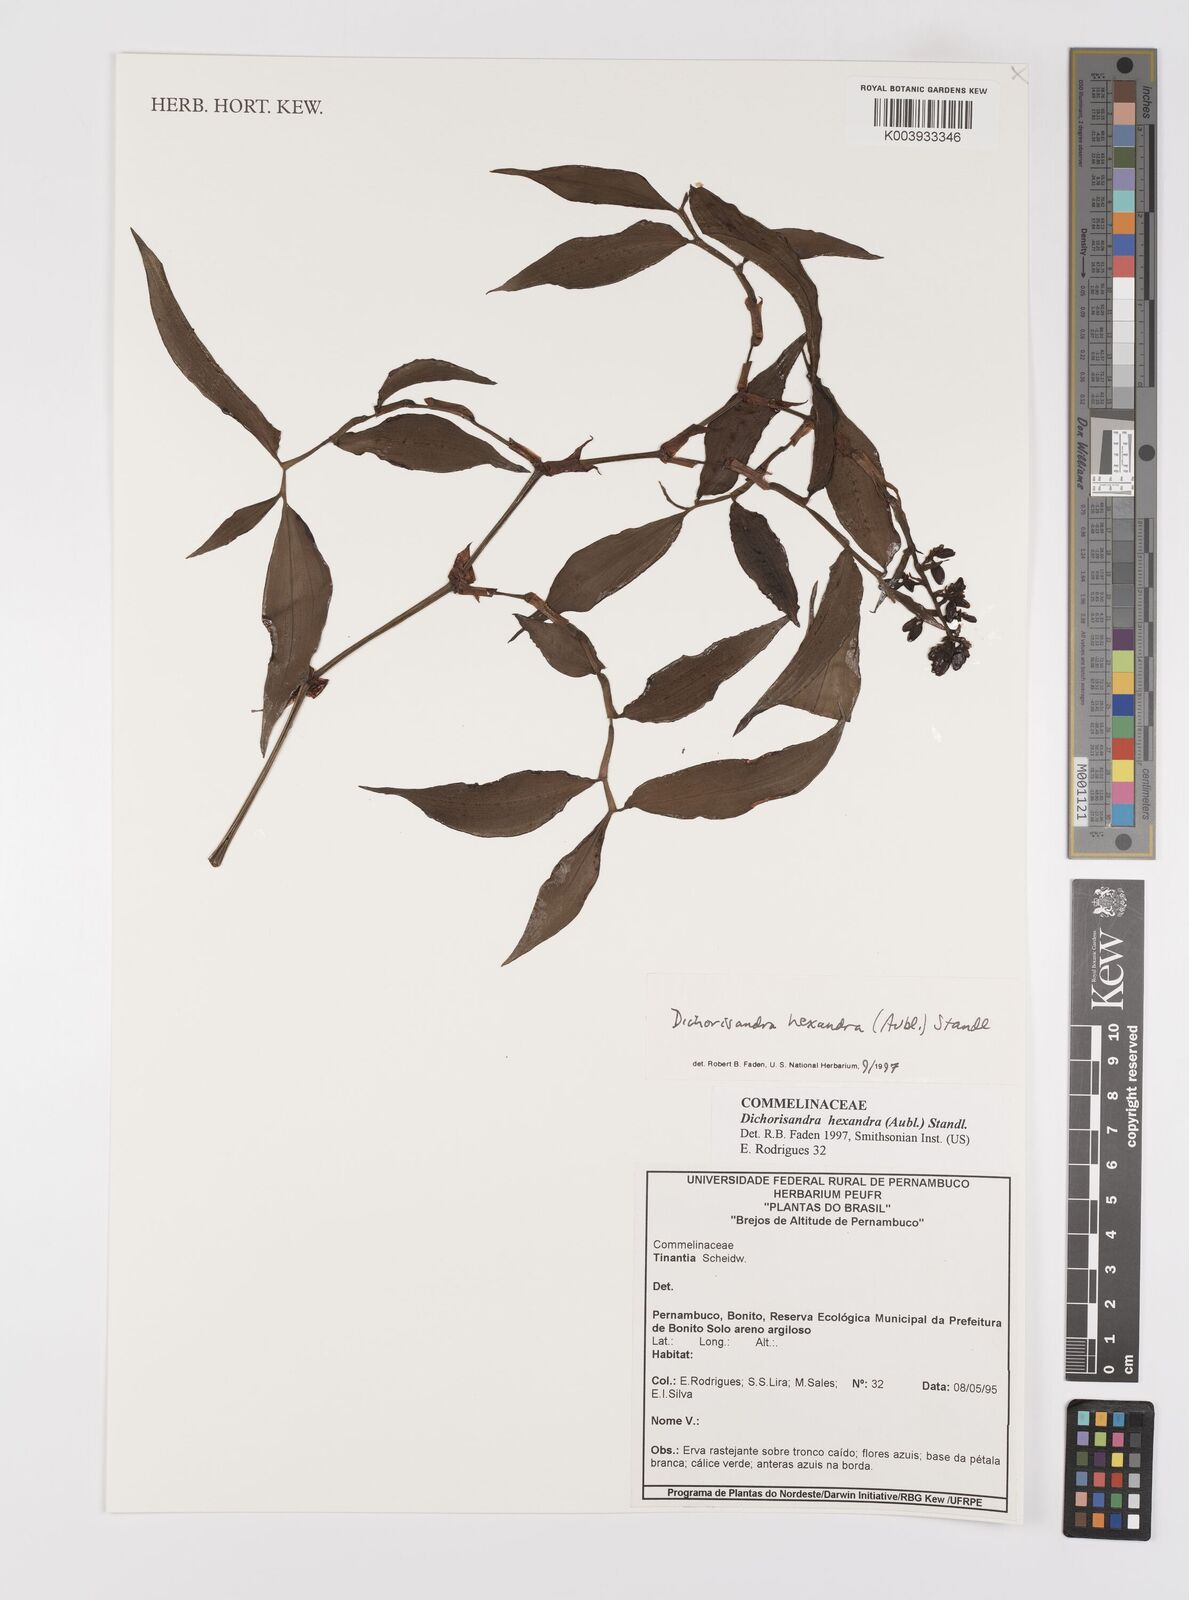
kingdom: Plantae
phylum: Tracheophyta
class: Liliopsida
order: Commelinales
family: Commelinaceae
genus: Dichorisandra
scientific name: Dichorisandra
